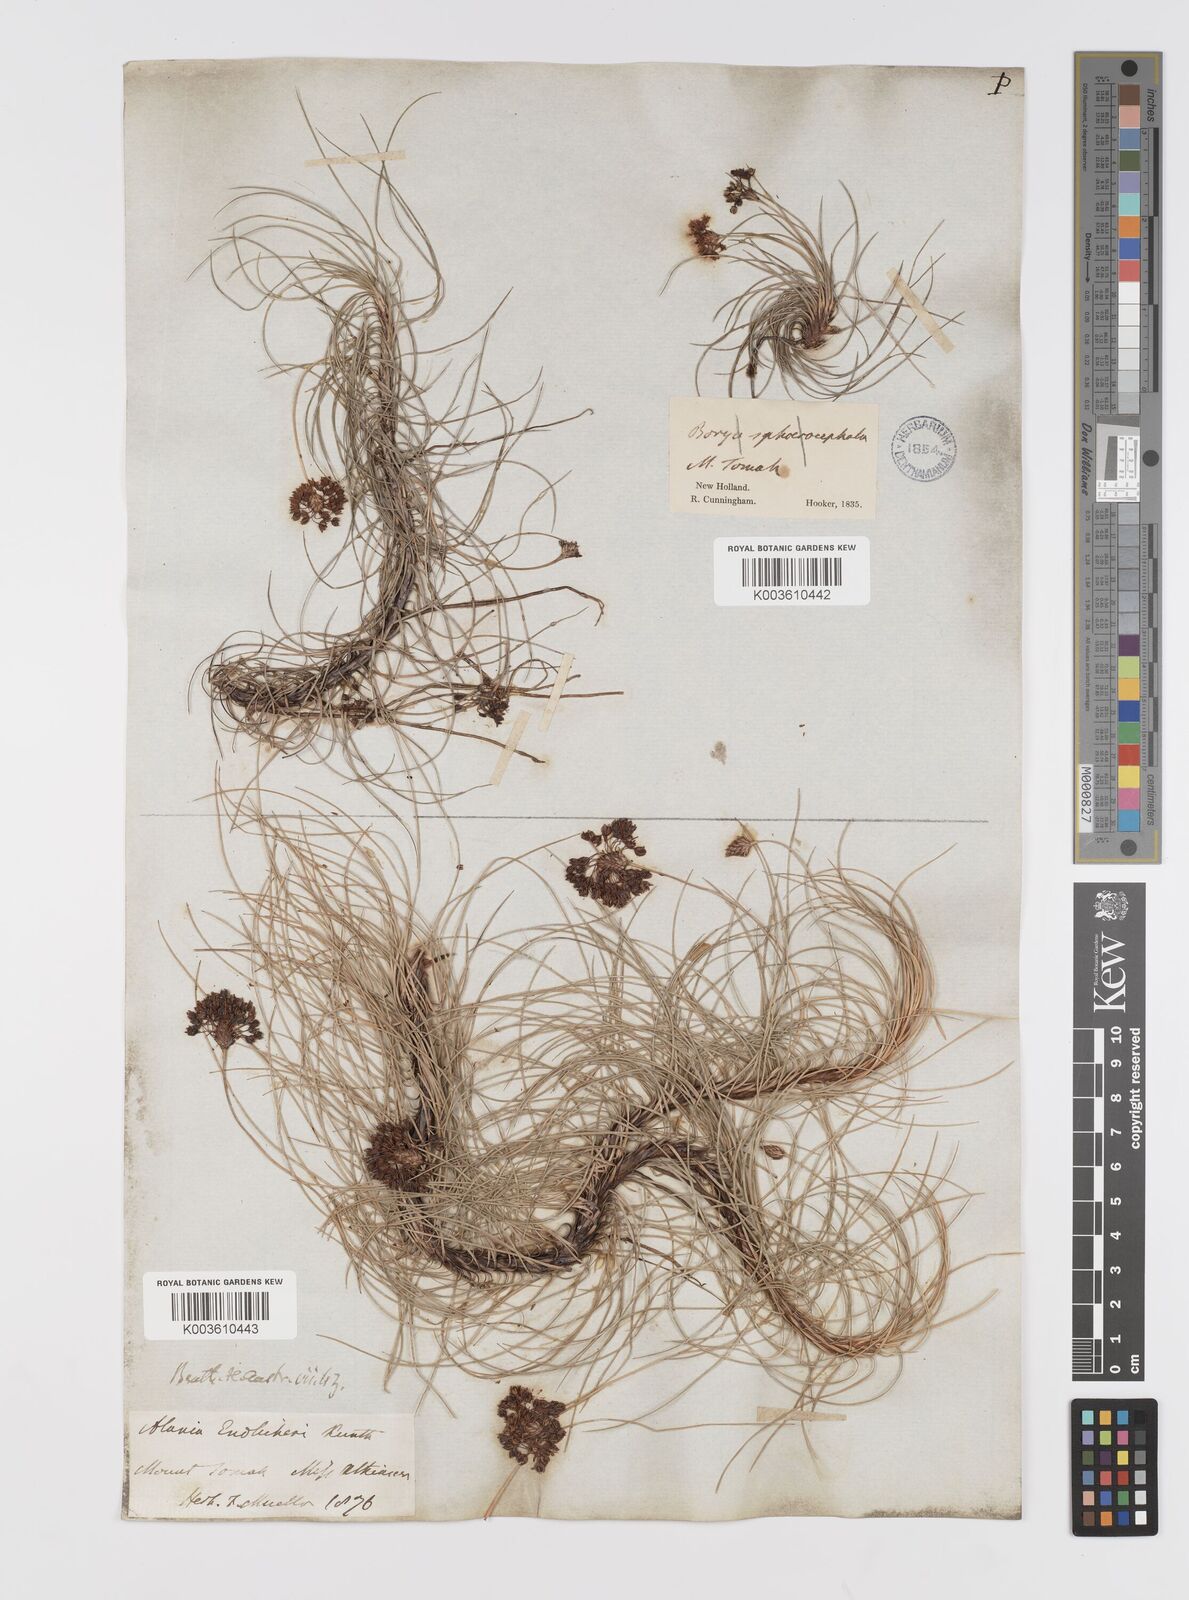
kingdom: Plantae
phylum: Tracheophyta
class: Liliopsida
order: Asparagales
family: Boryaceae
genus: Alania
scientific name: Alania cunninghamii
